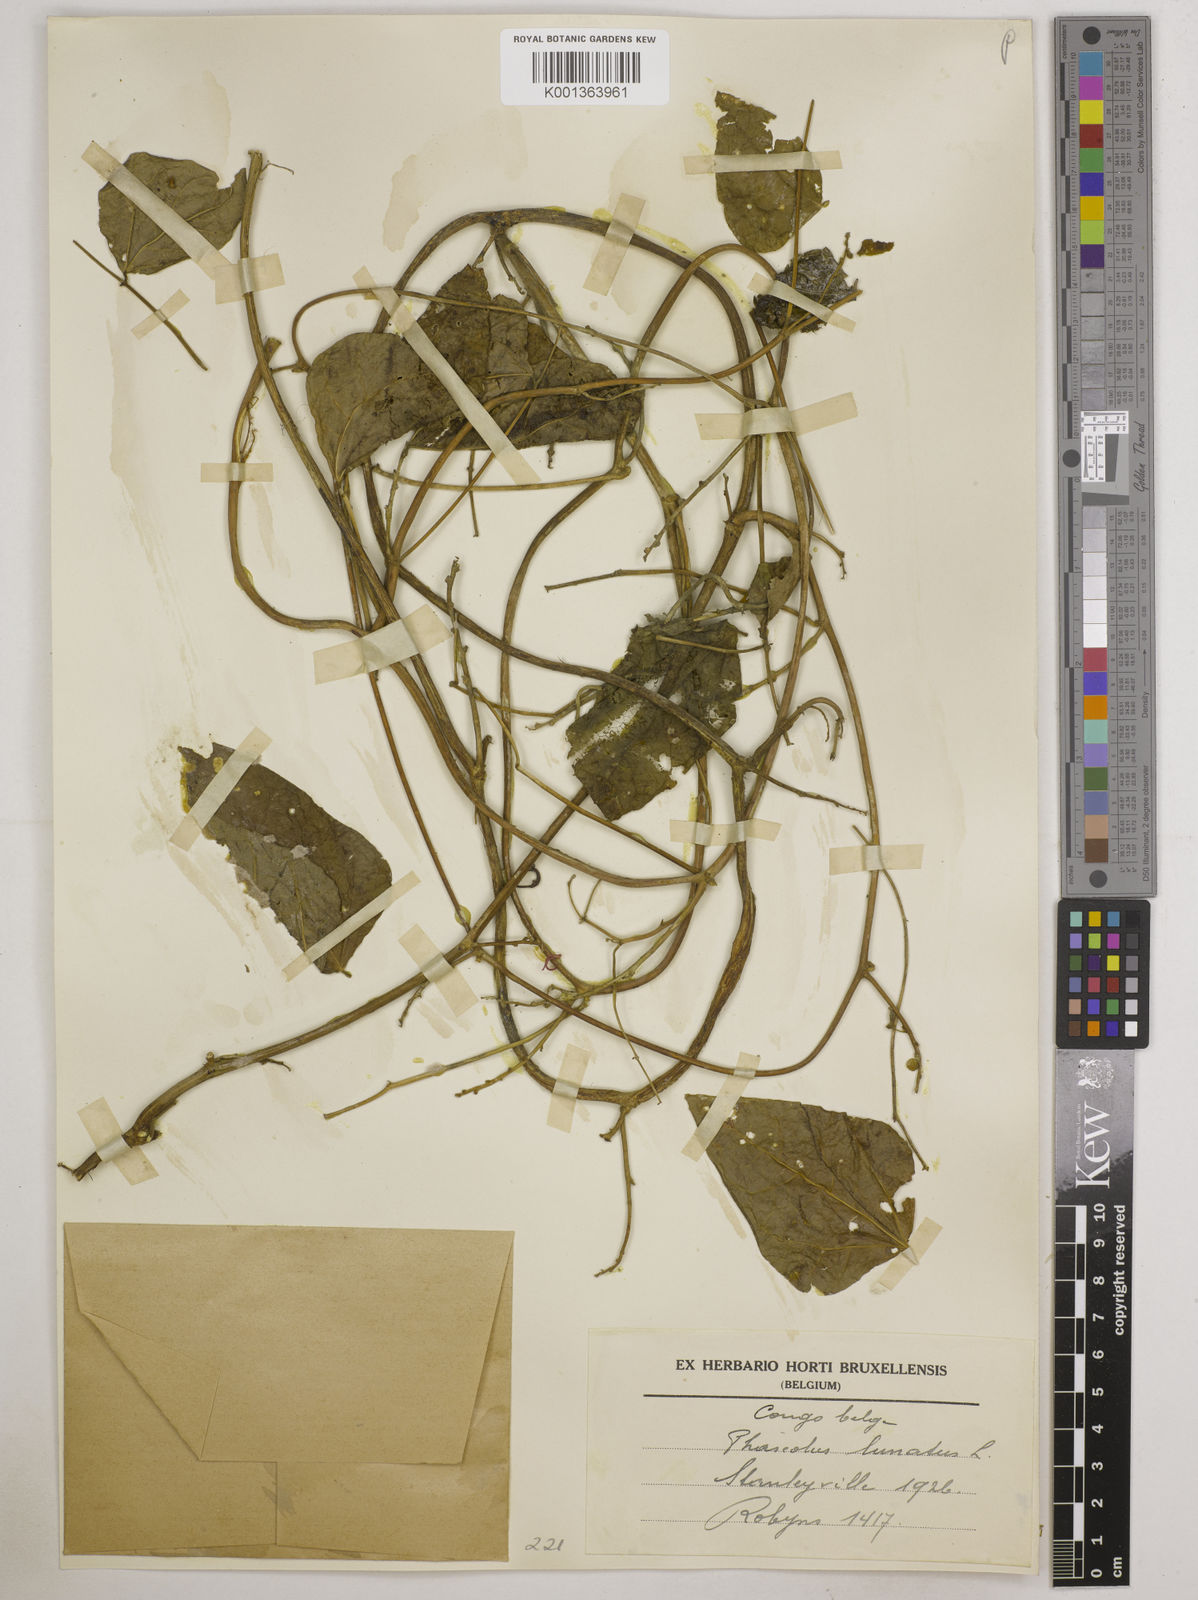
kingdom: Plantae
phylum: Tracheophyta
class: Magnoliopsida
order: Fabales
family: Fabaceae
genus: Phaseolus
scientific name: Phaseolus lunatus
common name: Sieva bean
